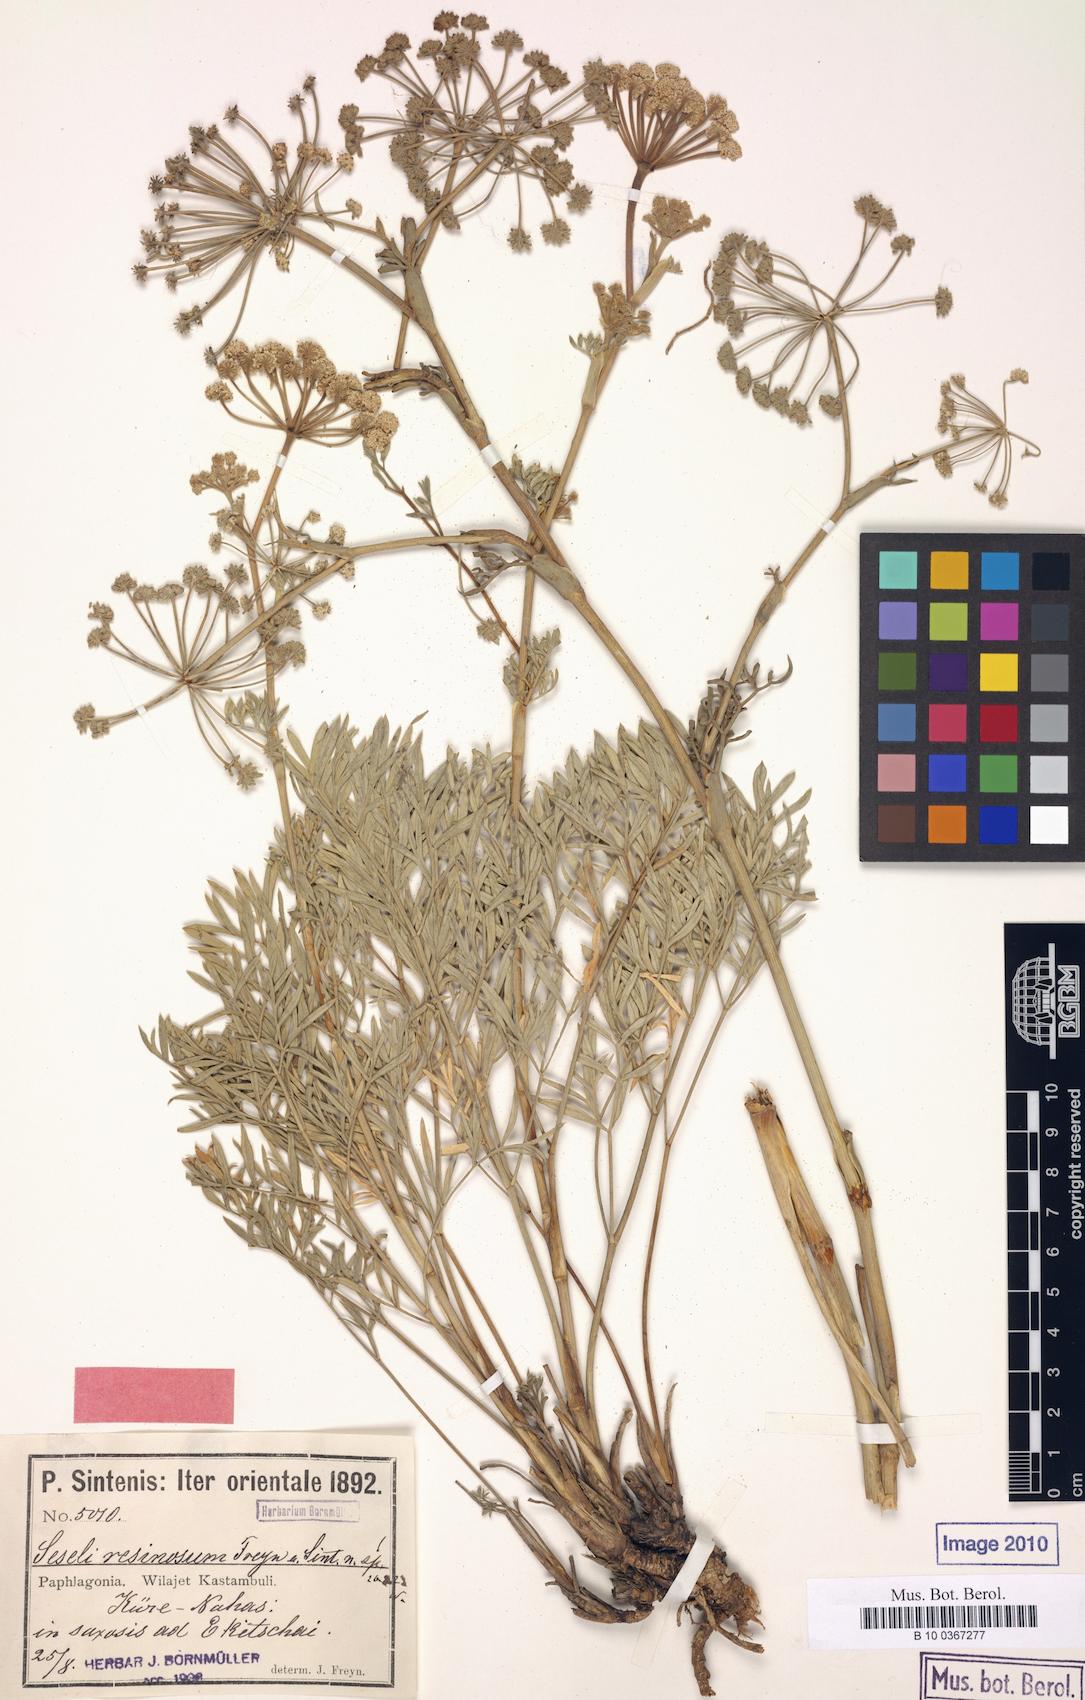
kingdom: Plantae
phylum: Tracheophyta
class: Magnoliopsida
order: Apiales
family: Apiaceae
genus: Seseli
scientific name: Seseli resinosum
